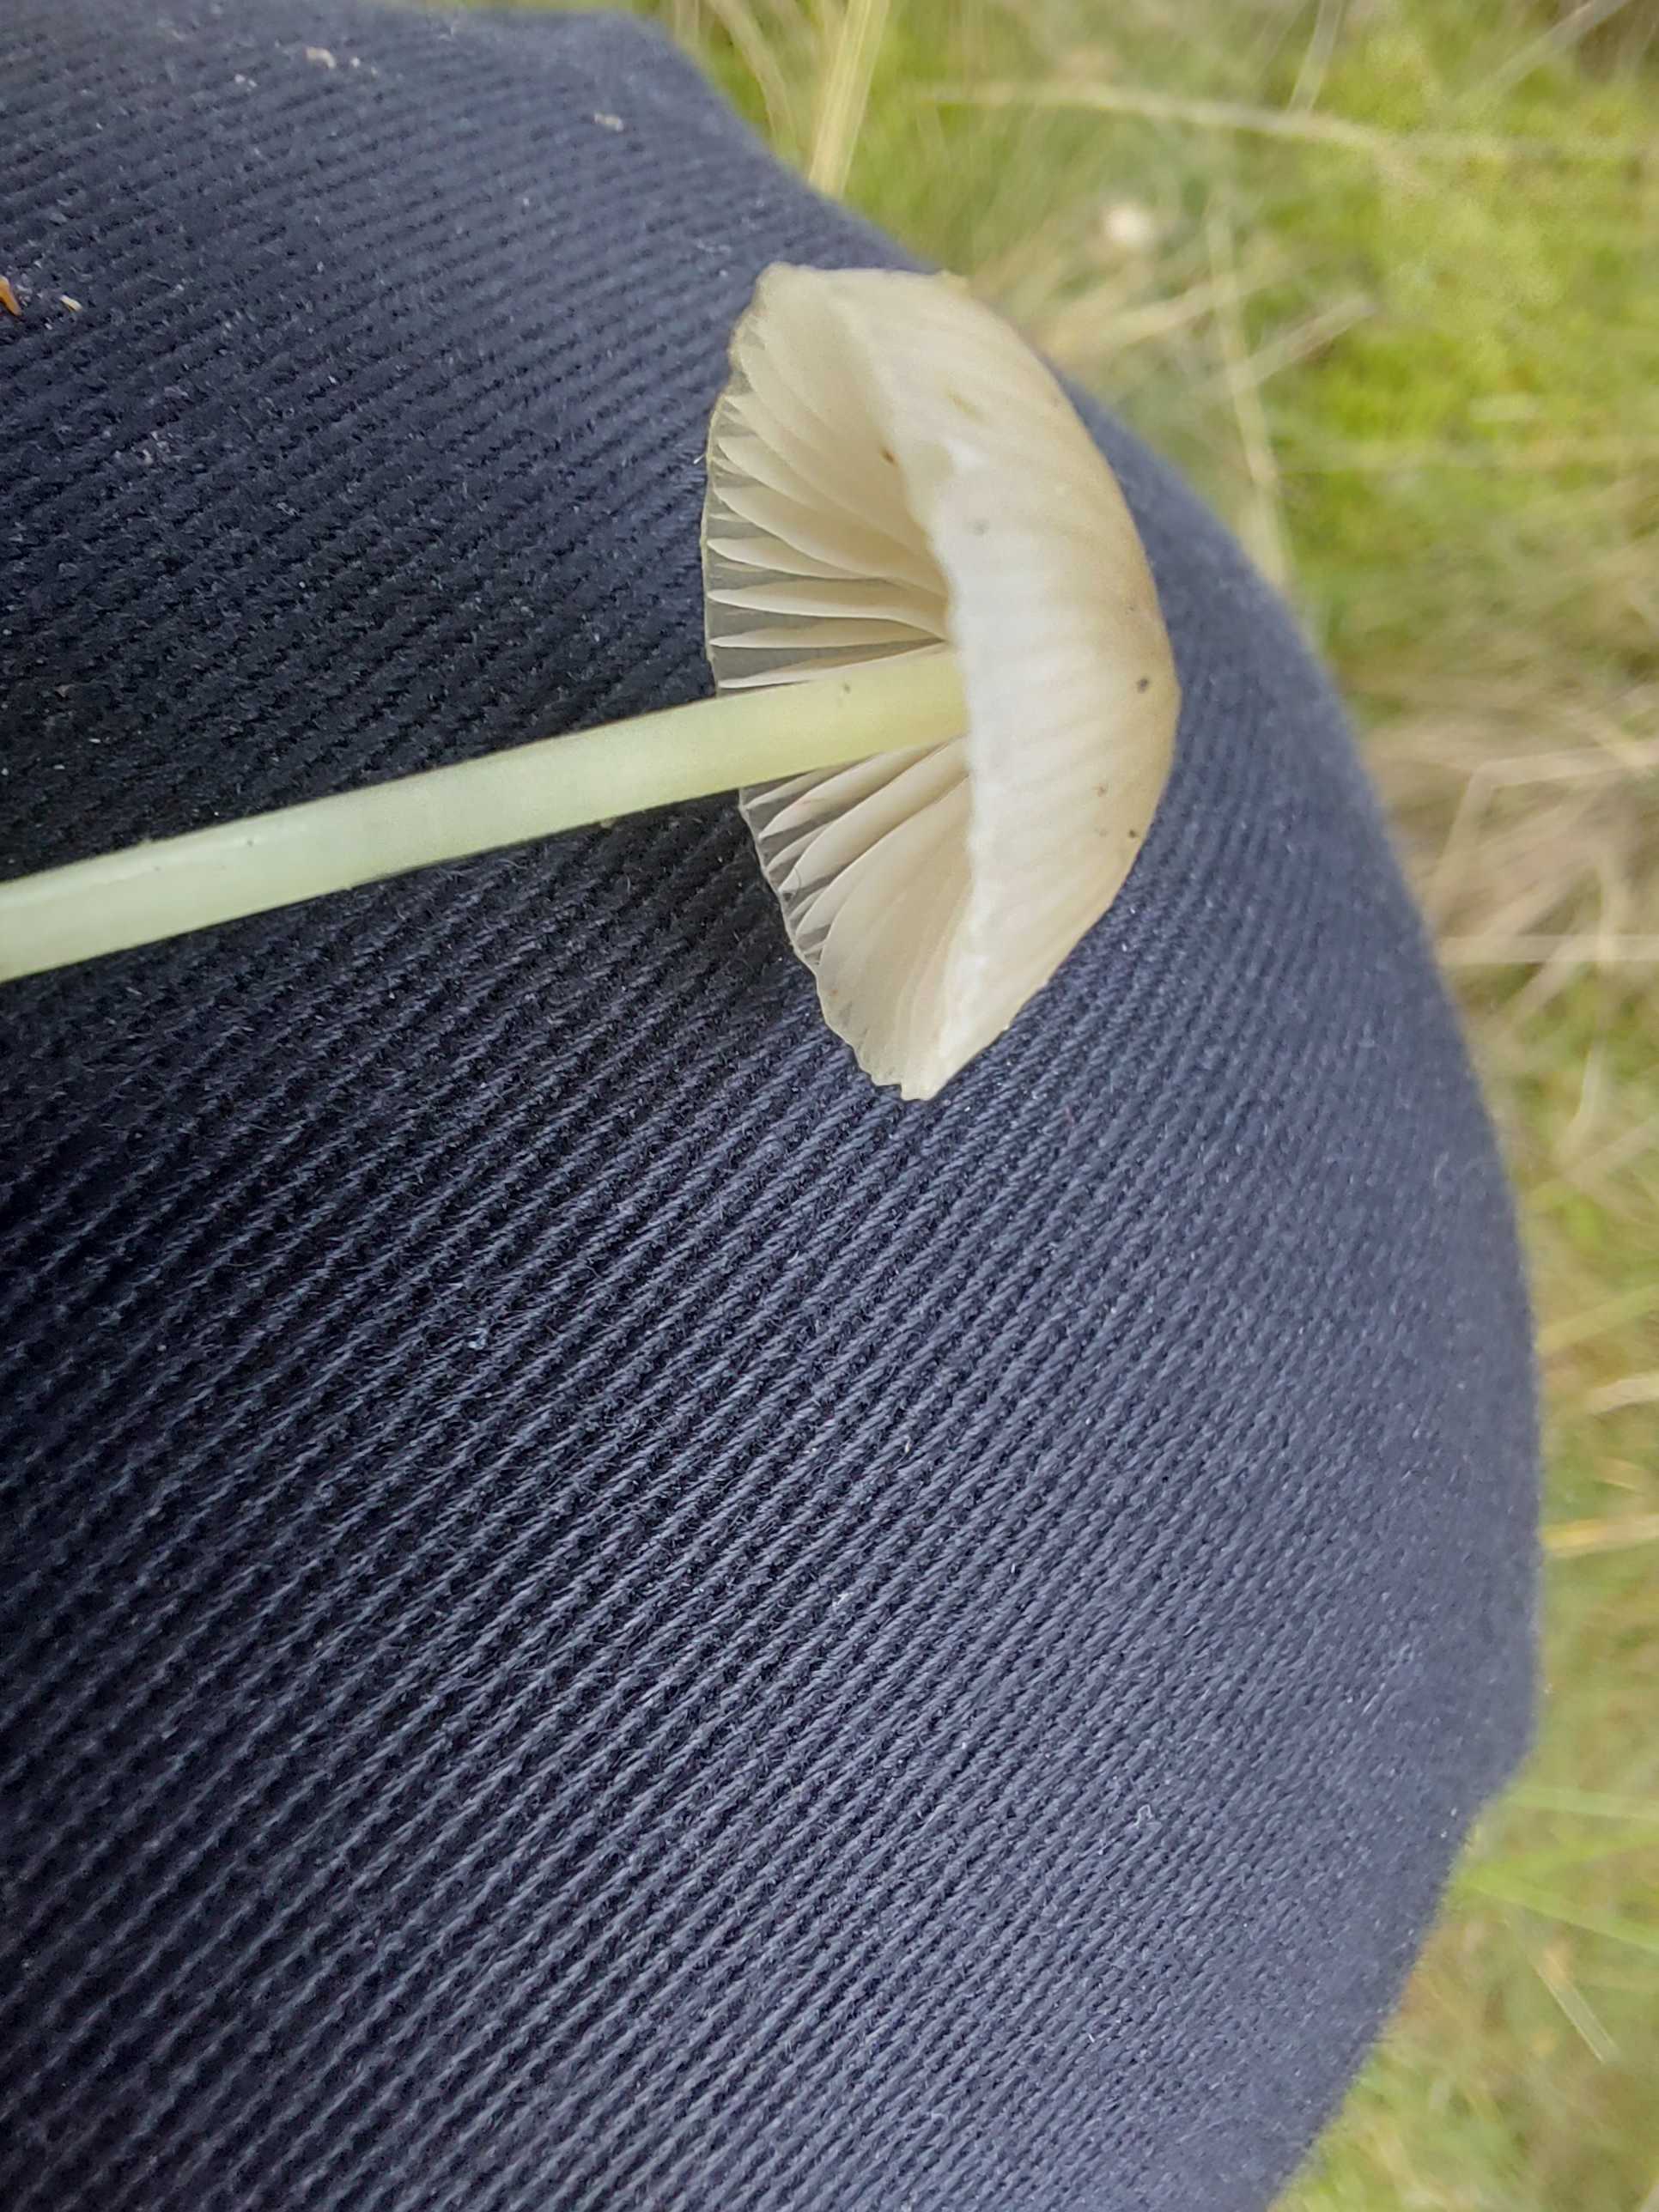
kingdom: Fungi
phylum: Basidiomycota
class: Agaricomycetes
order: Agaricales
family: Mycenaceae
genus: Mycena
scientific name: Mycena epipterygia
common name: gulstokket huesvamp
